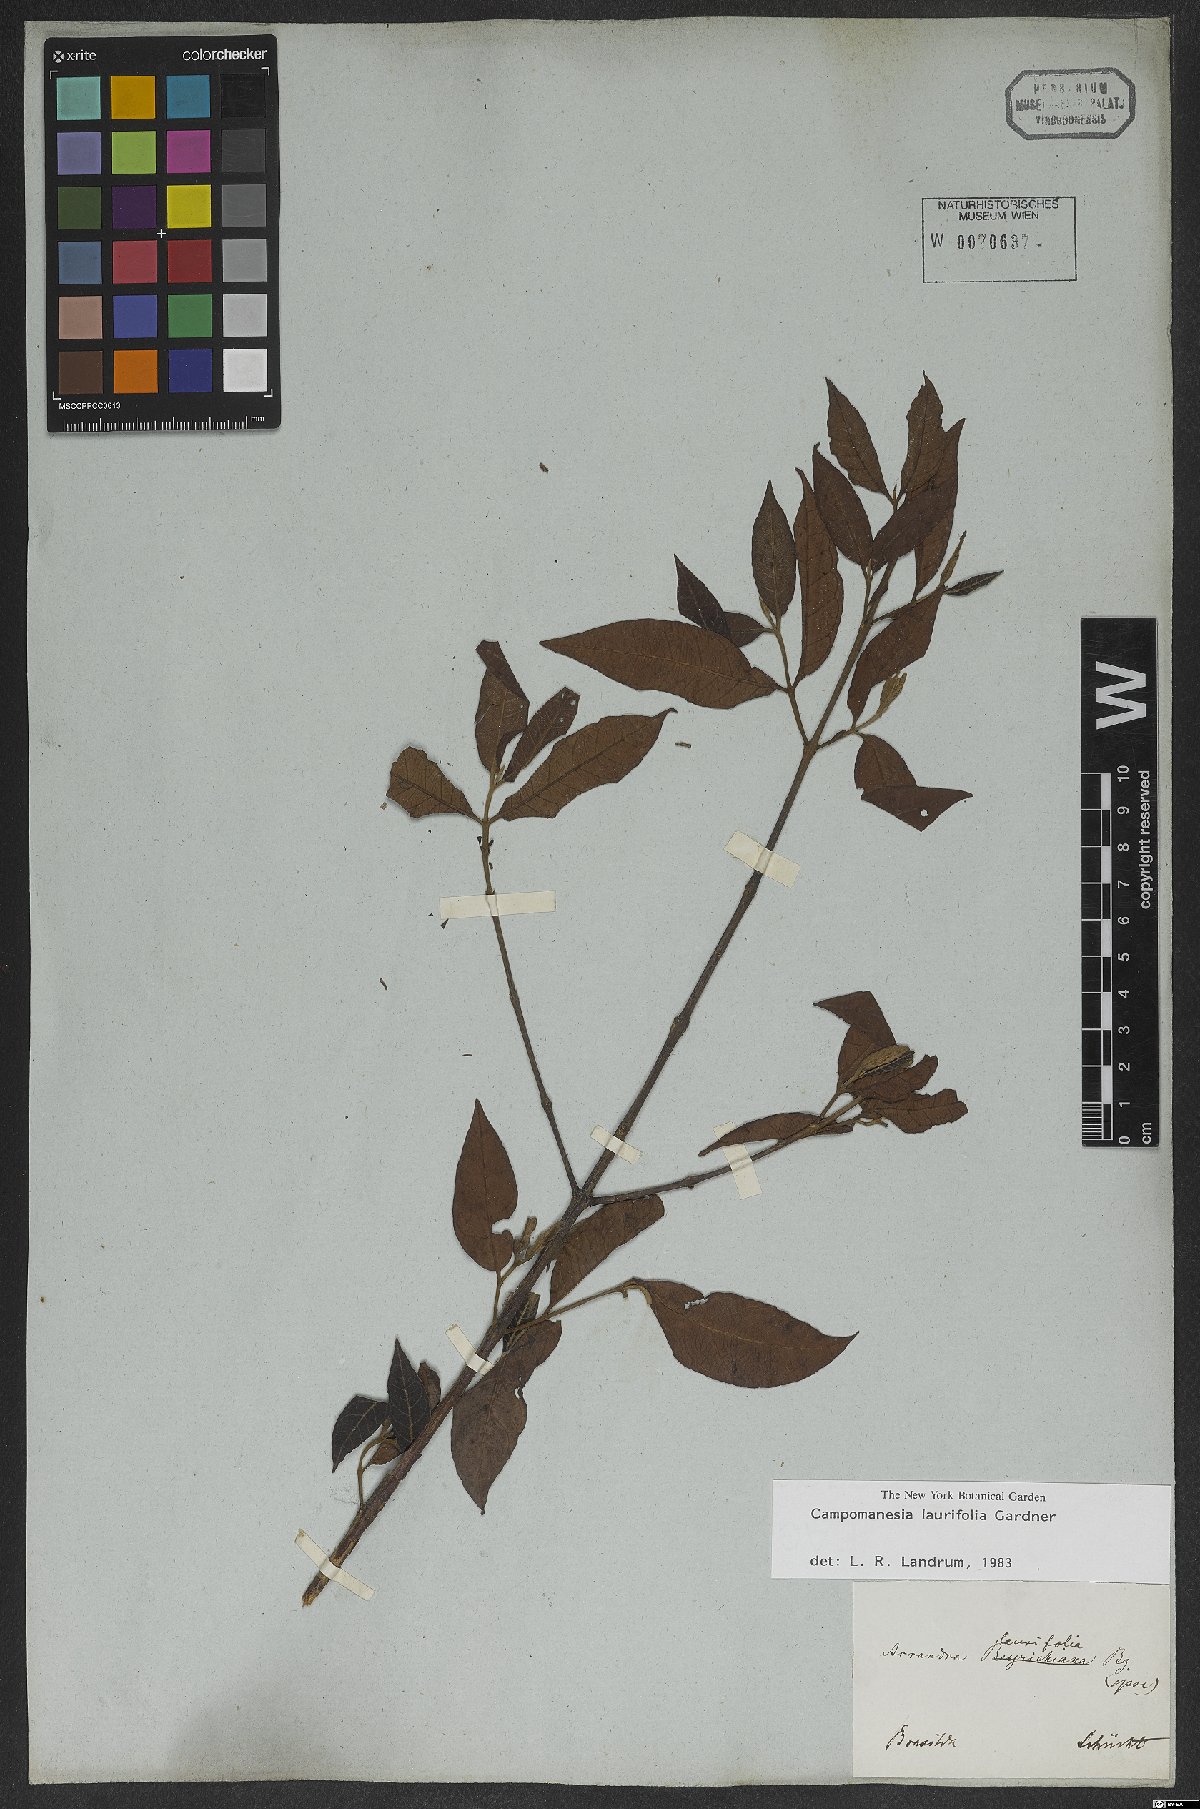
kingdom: Plantae
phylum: Tracheophyta
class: Magnoliopsida
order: Myrtales
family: Myrtaceae
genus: Campomanesia
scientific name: Campomanesia laurifolia
